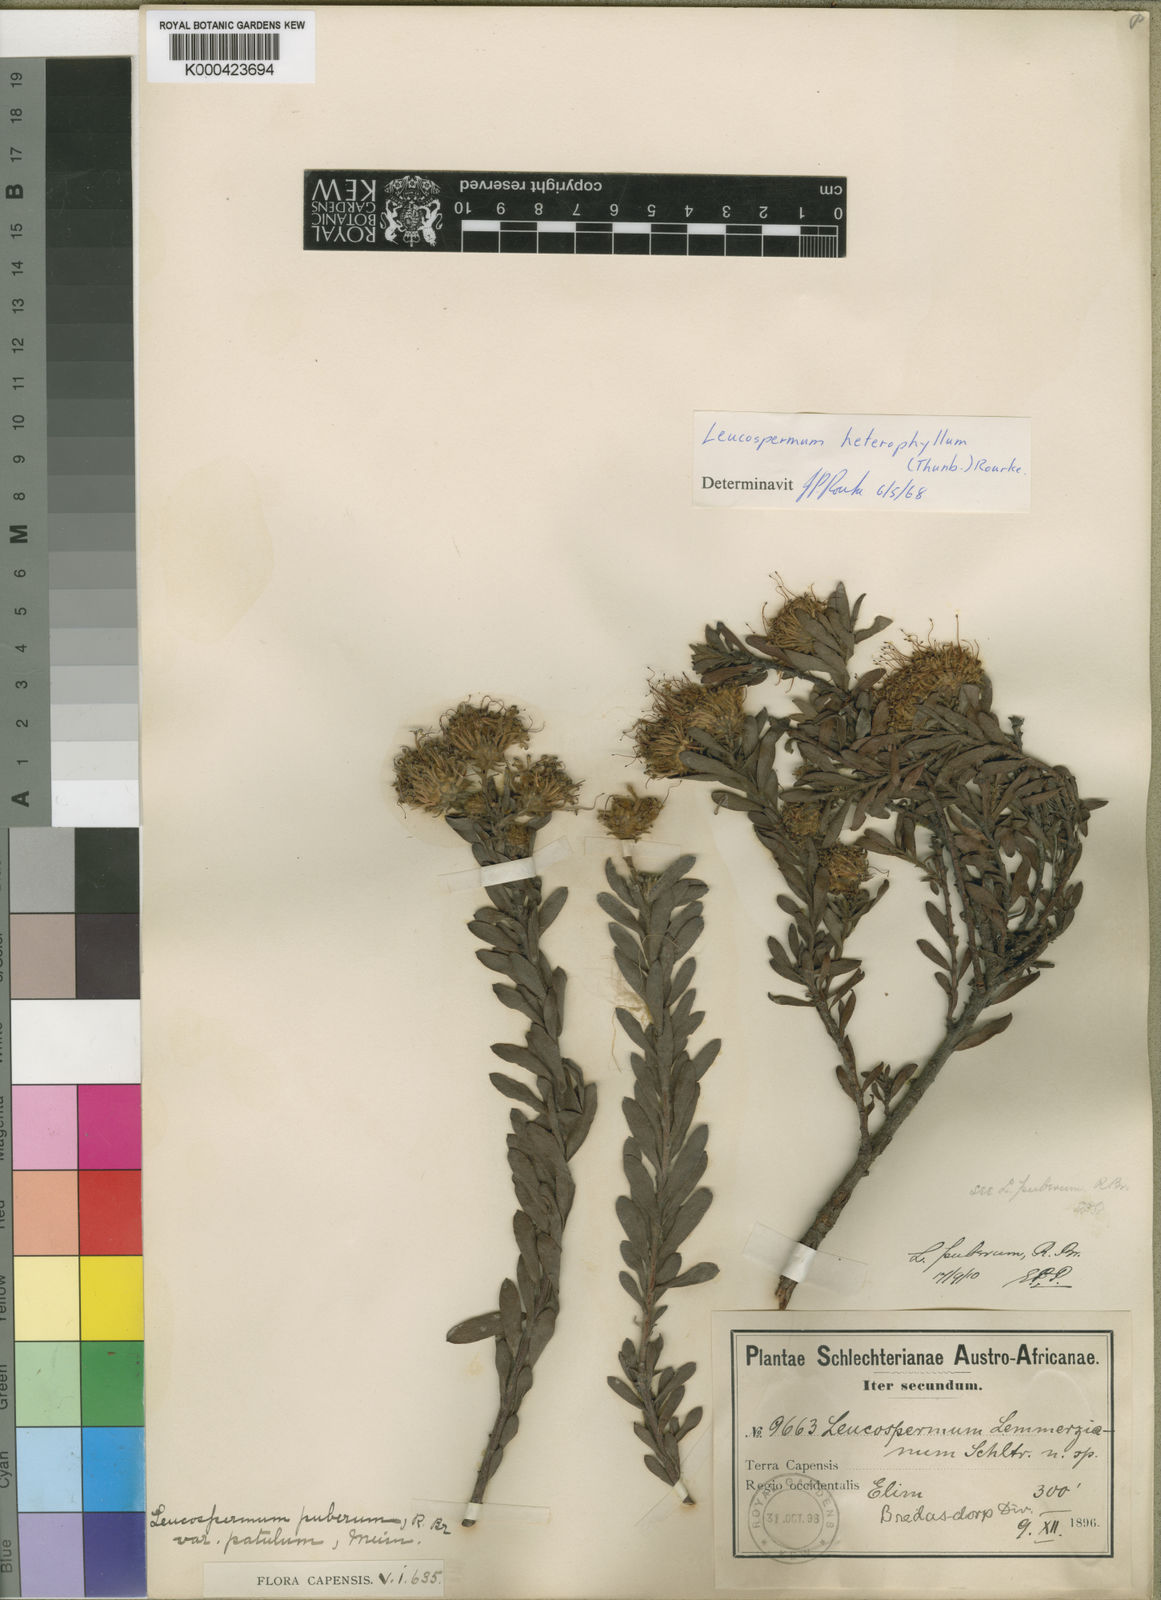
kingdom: Plantae
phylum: Tracheophyta
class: Magnoliopsida
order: Proteales
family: Proteaceae
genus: Leucospermum
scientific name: Leucospermum
